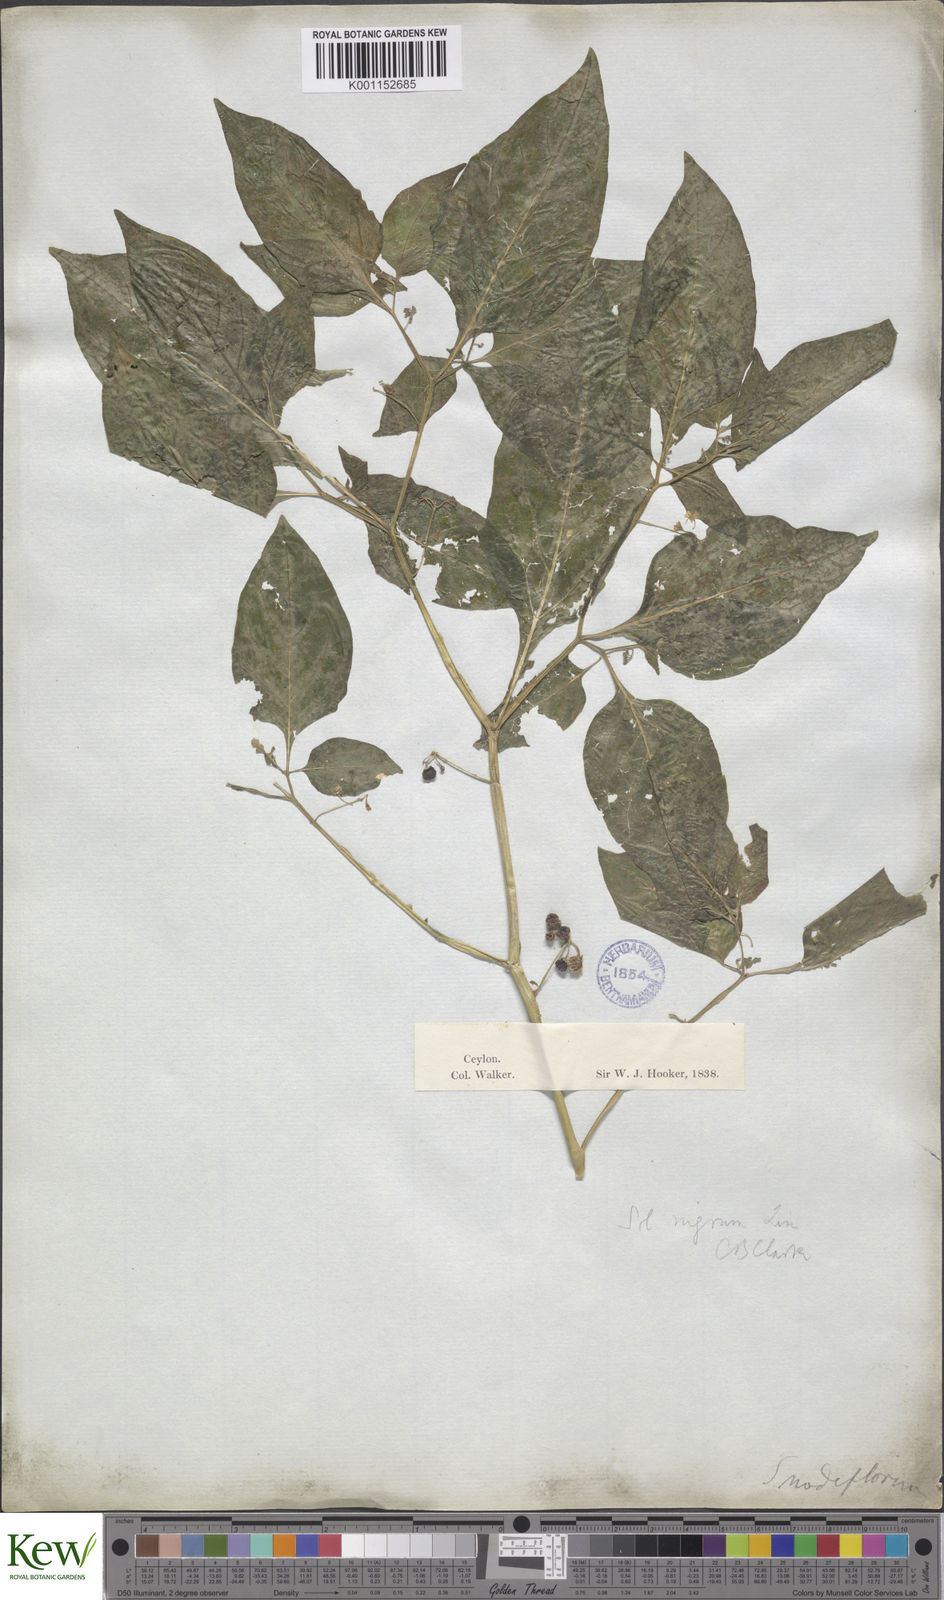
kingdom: Plantae
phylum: Tracheophyta
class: Magnoliopsida
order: Solanales
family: Solanaceae
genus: Solanum
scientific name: Solanum nigrum
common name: Black nightshade
